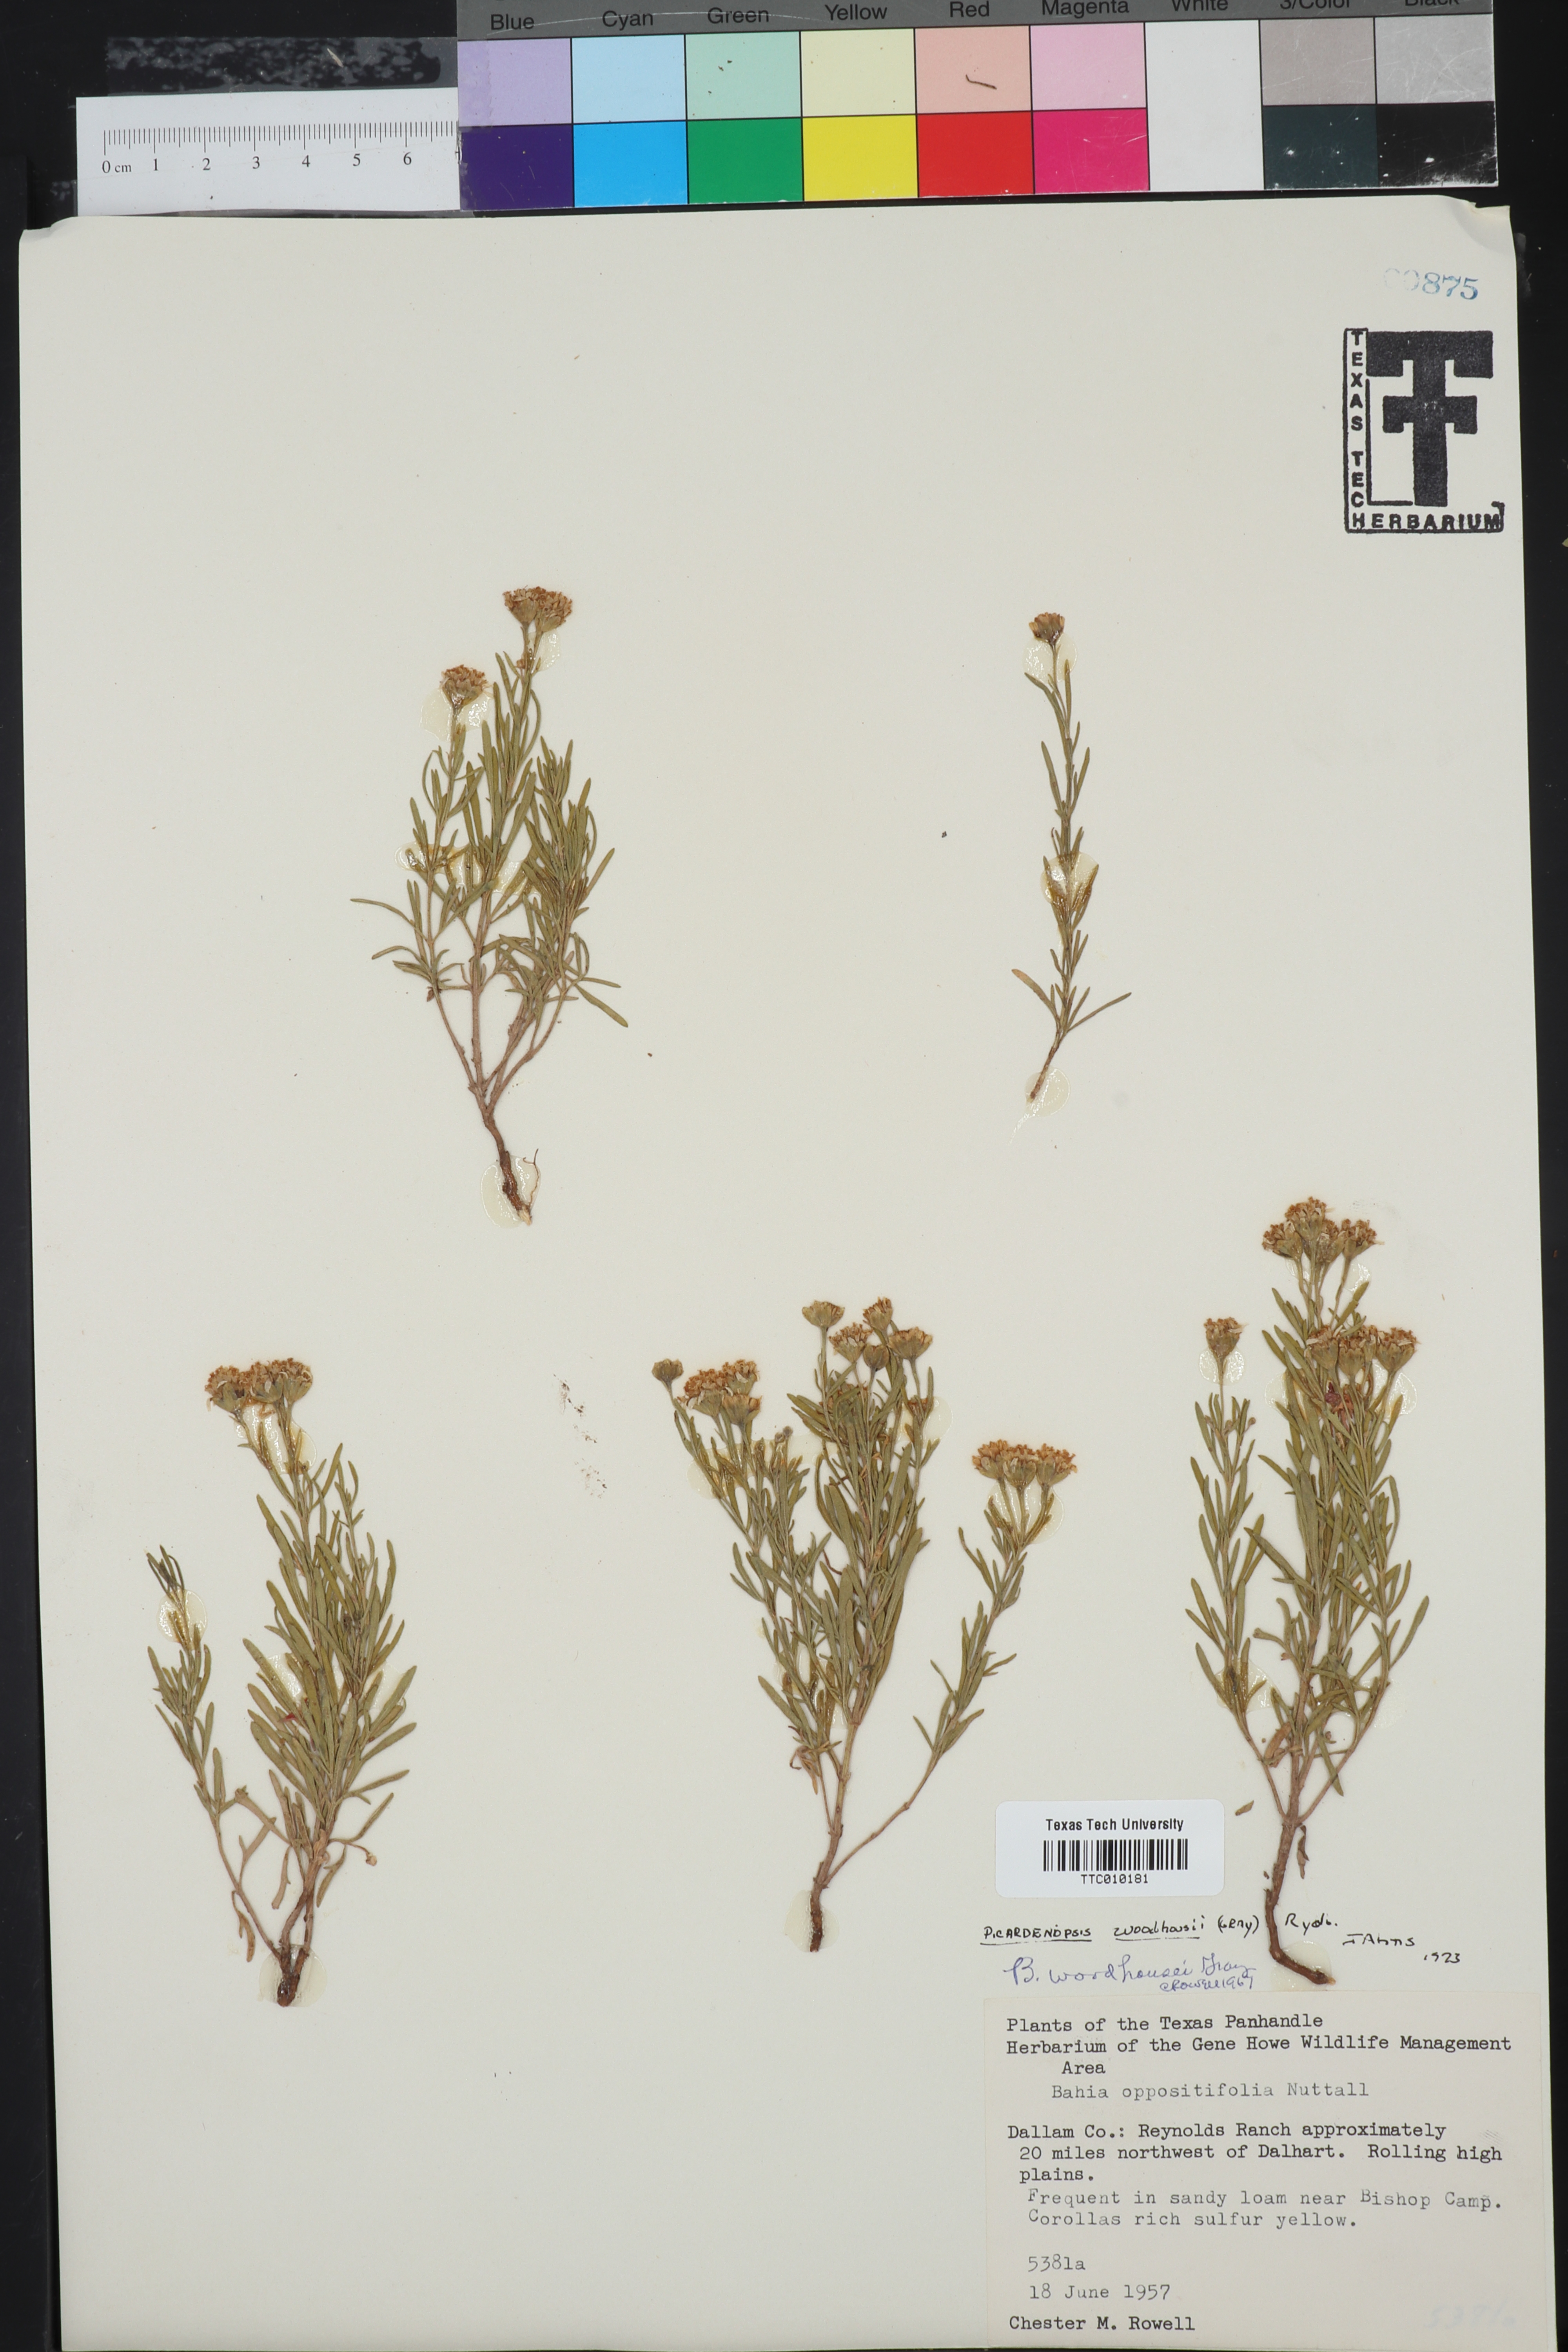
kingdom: Plantae
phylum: Tracheophyta
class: Magnoliopsida
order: Asterales
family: Asteraceae
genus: Picradeniopsis
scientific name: Picradeniopsis woodhousei
